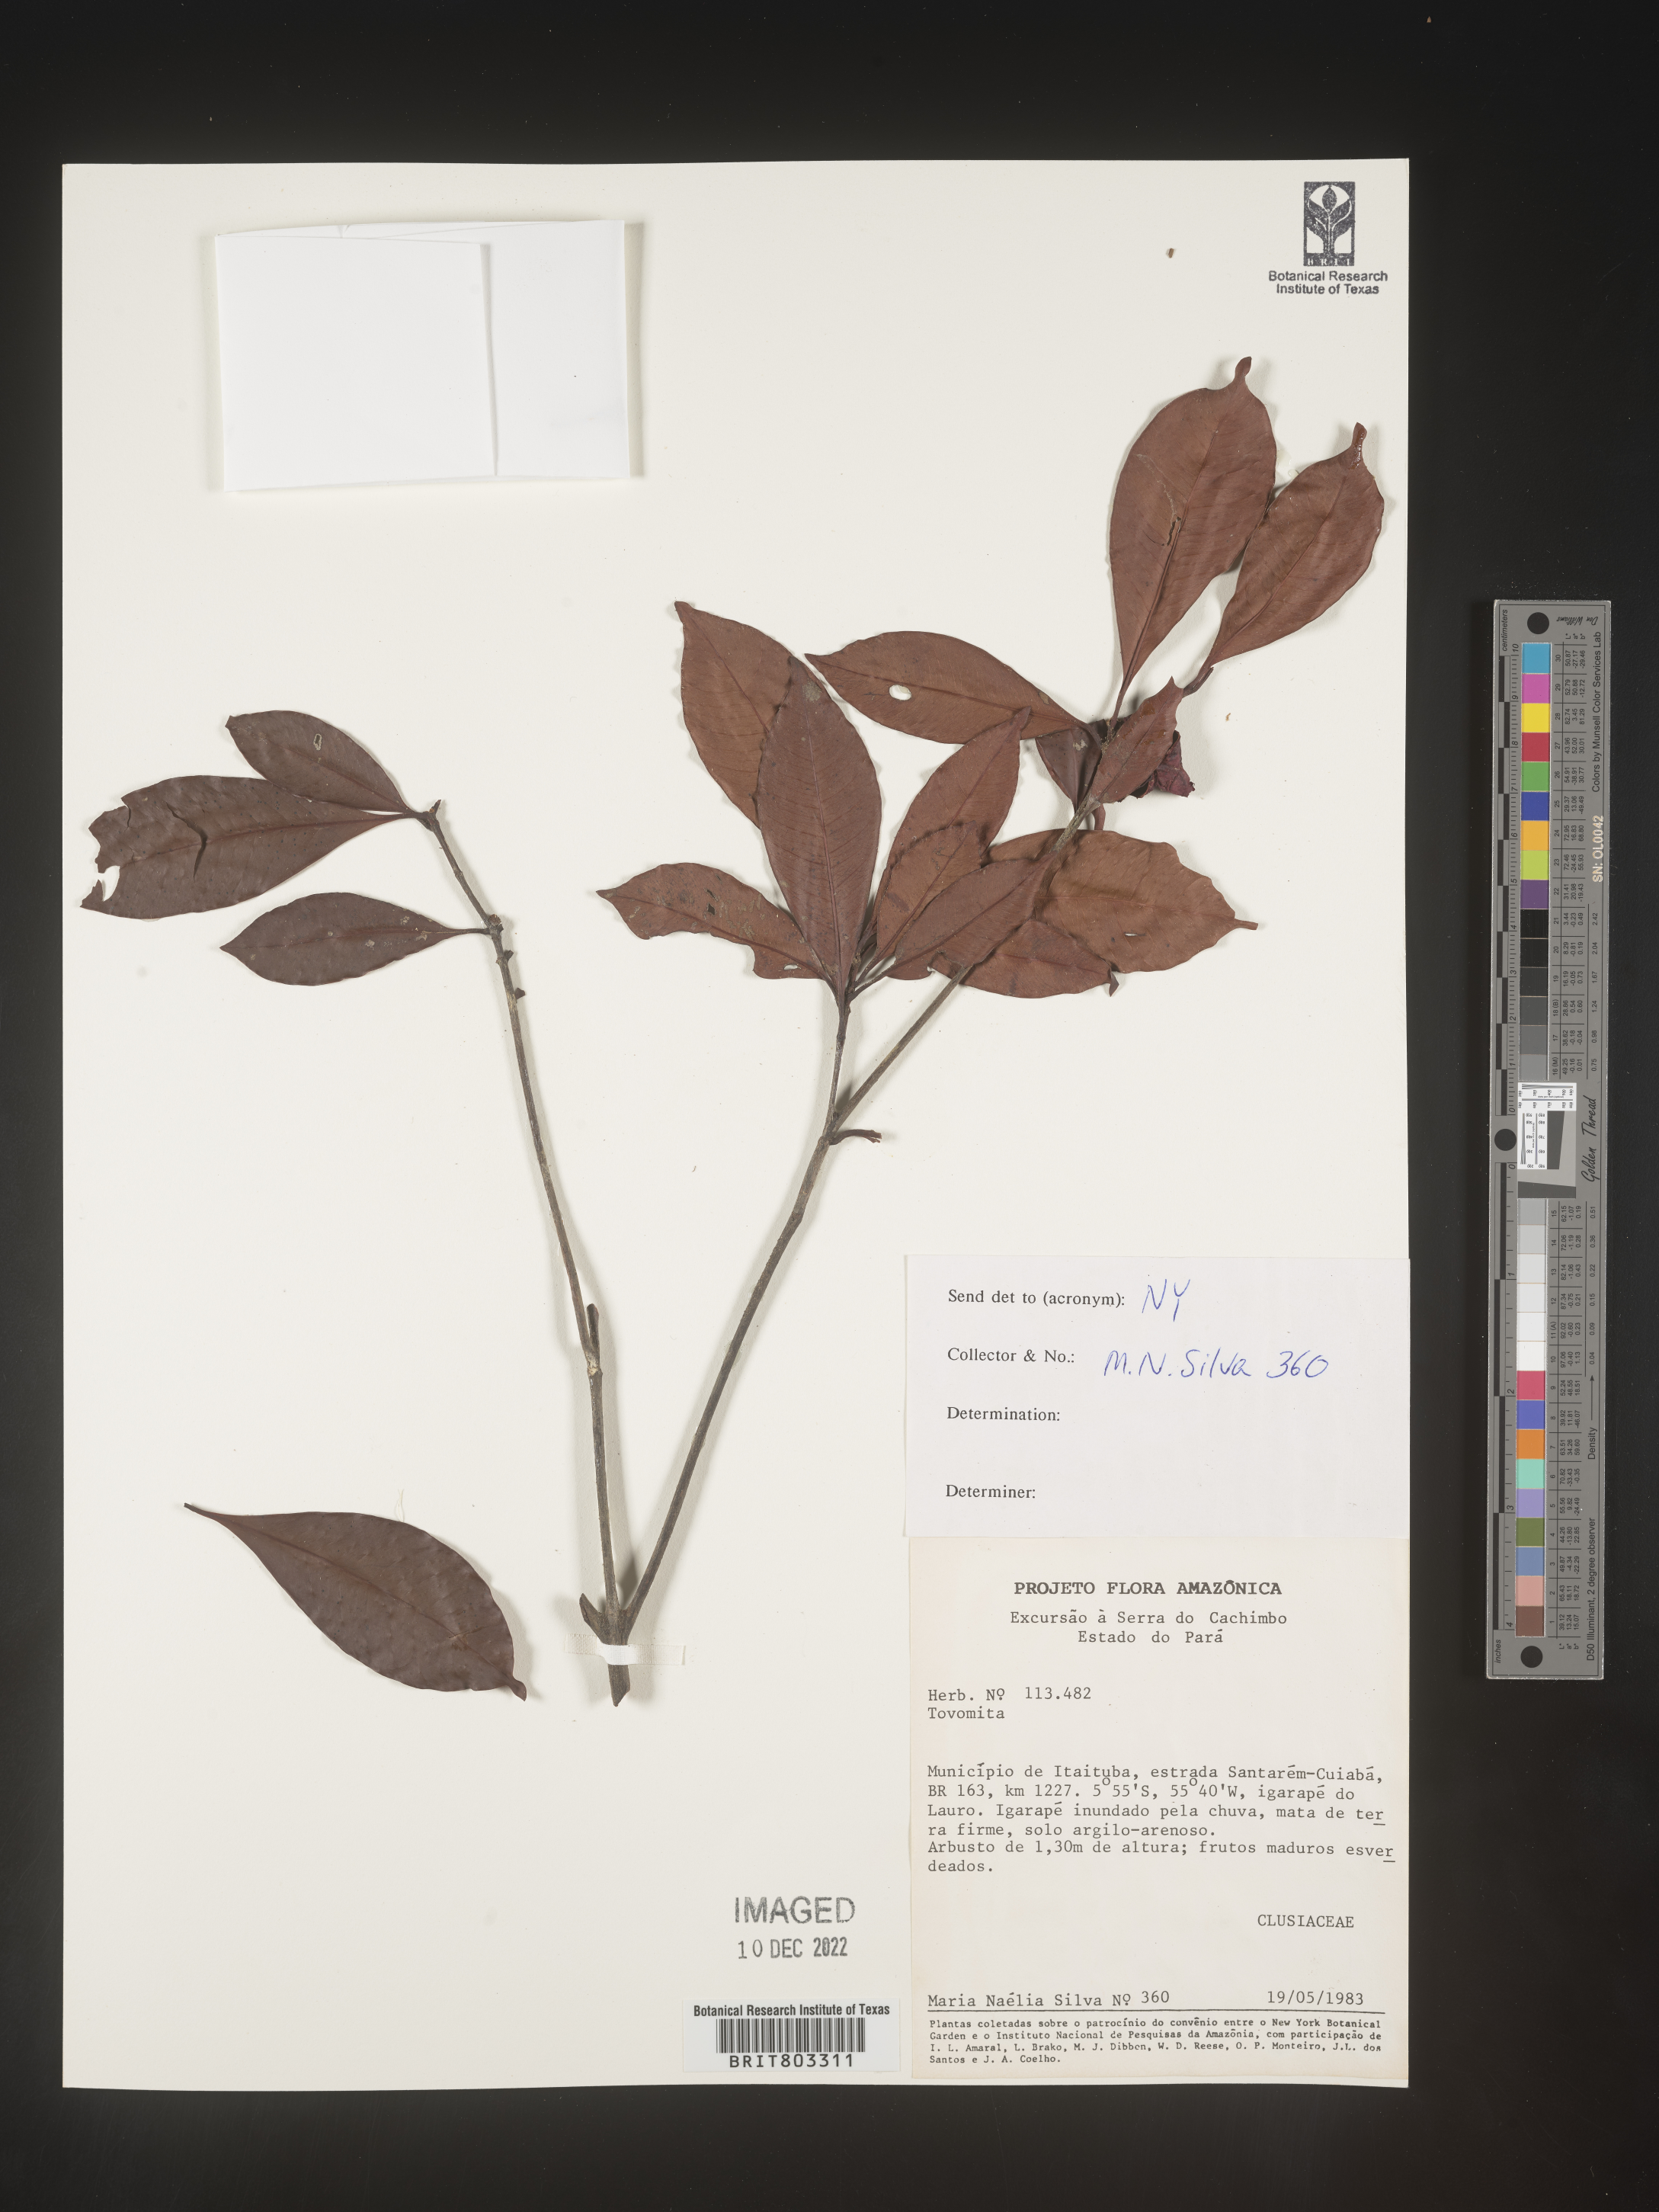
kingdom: Plantae
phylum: Tracheophyta
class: Magnoliopsida
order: Malpighiales
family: Clusiaceae
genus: Tovomita
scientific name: Tovomita
